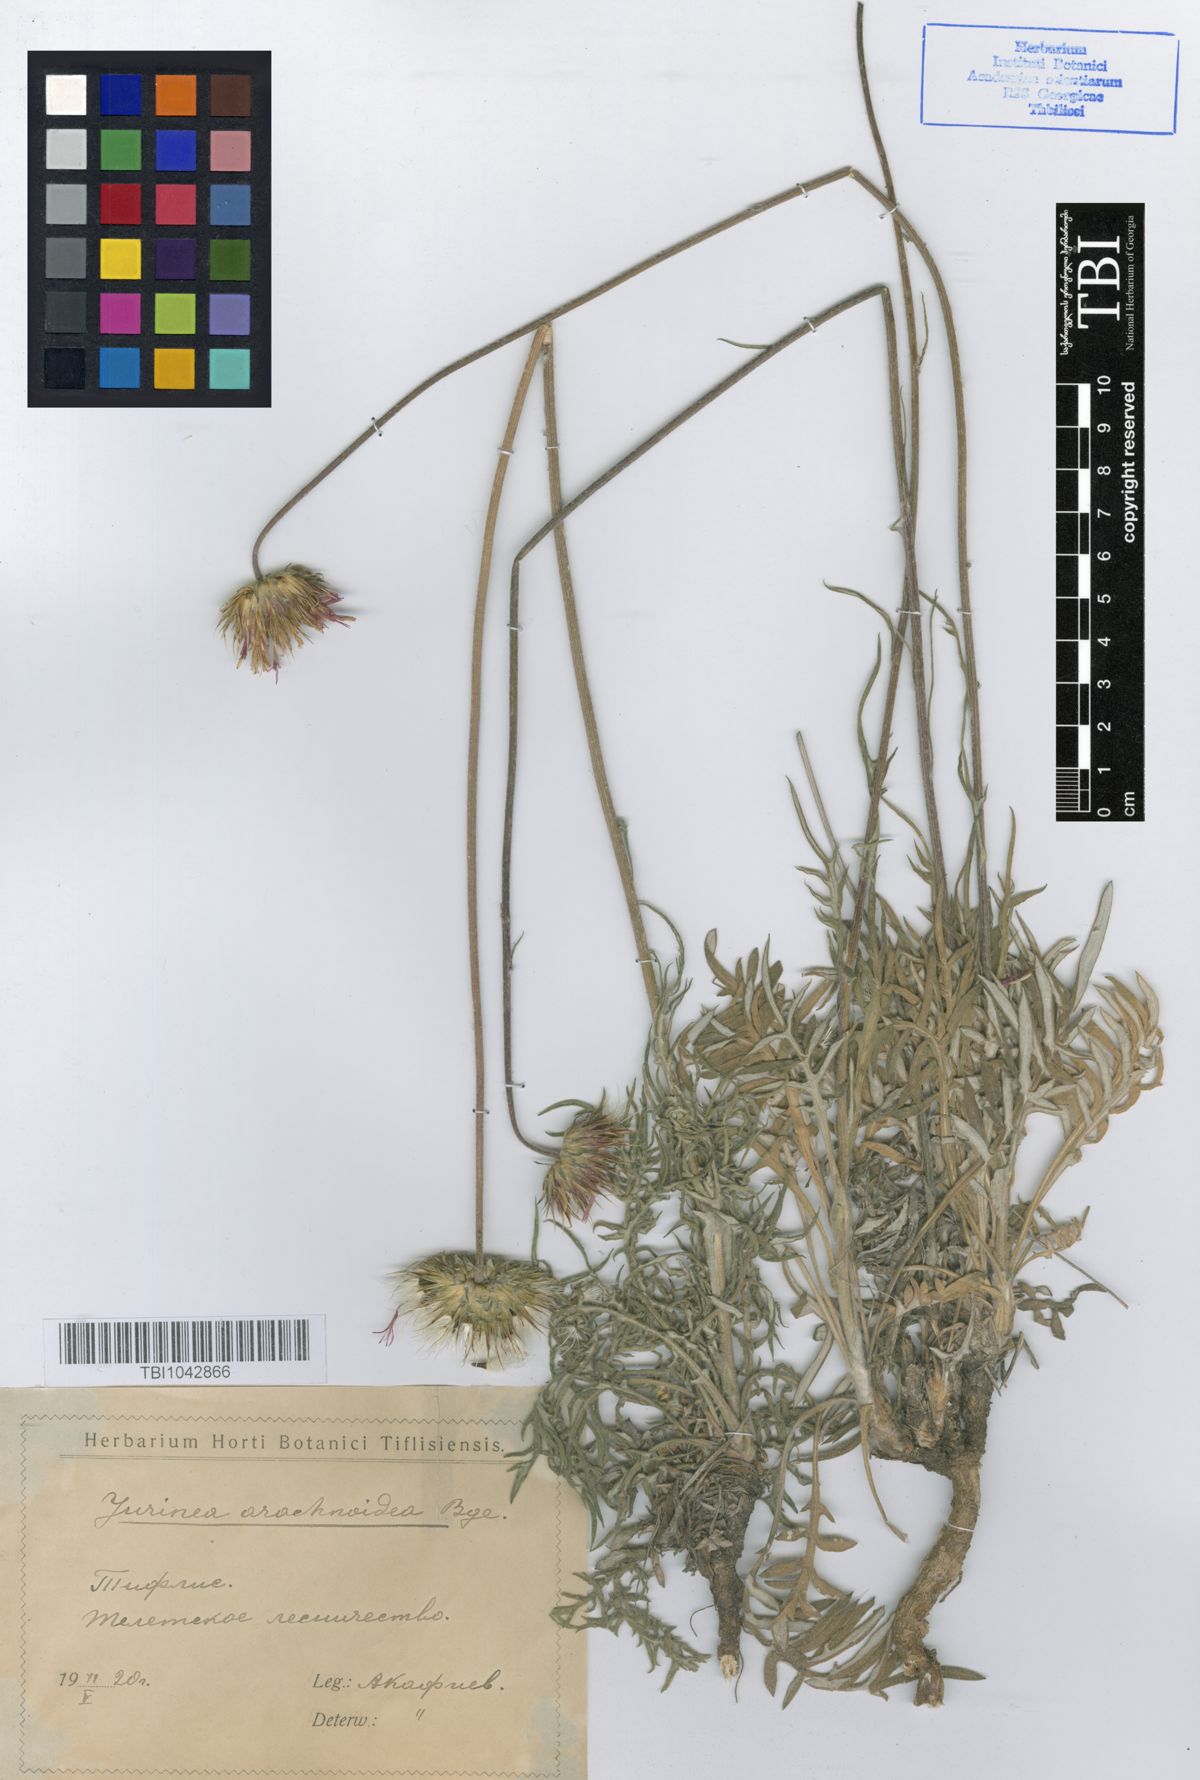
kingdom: Plantae
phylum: Tracheophyta
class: Magnoliopsida
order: Asterales
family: Asteraceae
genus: Jurinea
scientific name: Jurinea blanda
